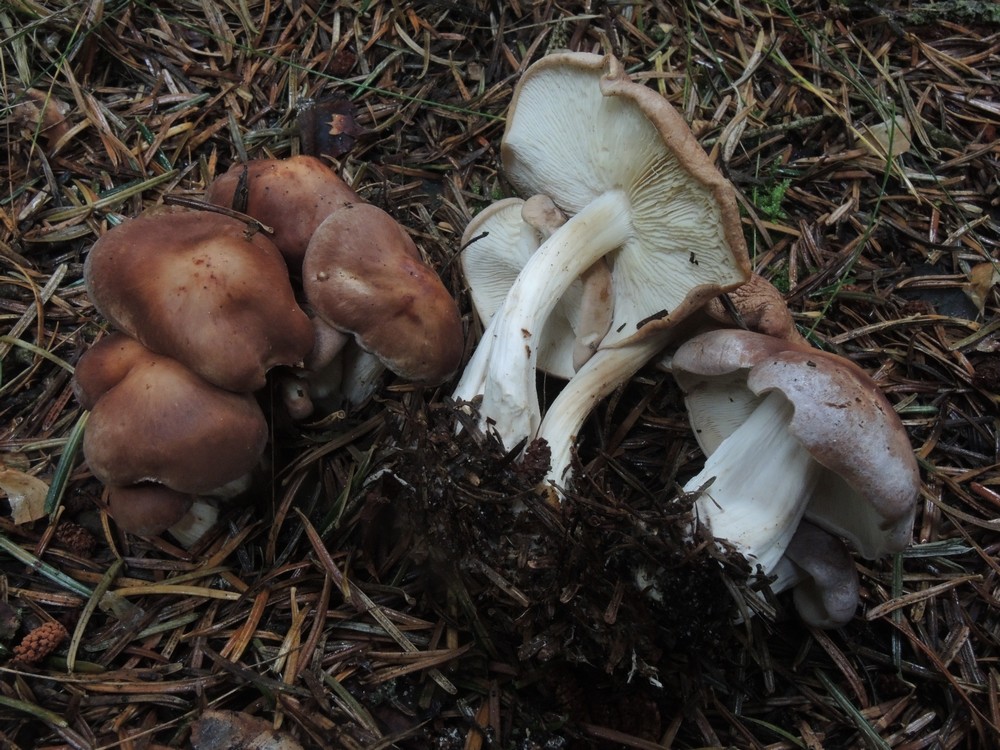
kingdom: Fungi
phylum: Basidiomycota
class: Agaricomycetes
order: Agaricales
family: Omphalotaceae
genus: Rhodocollybia
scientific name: Rhodocollybia prolixa
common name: snoet fladhat
